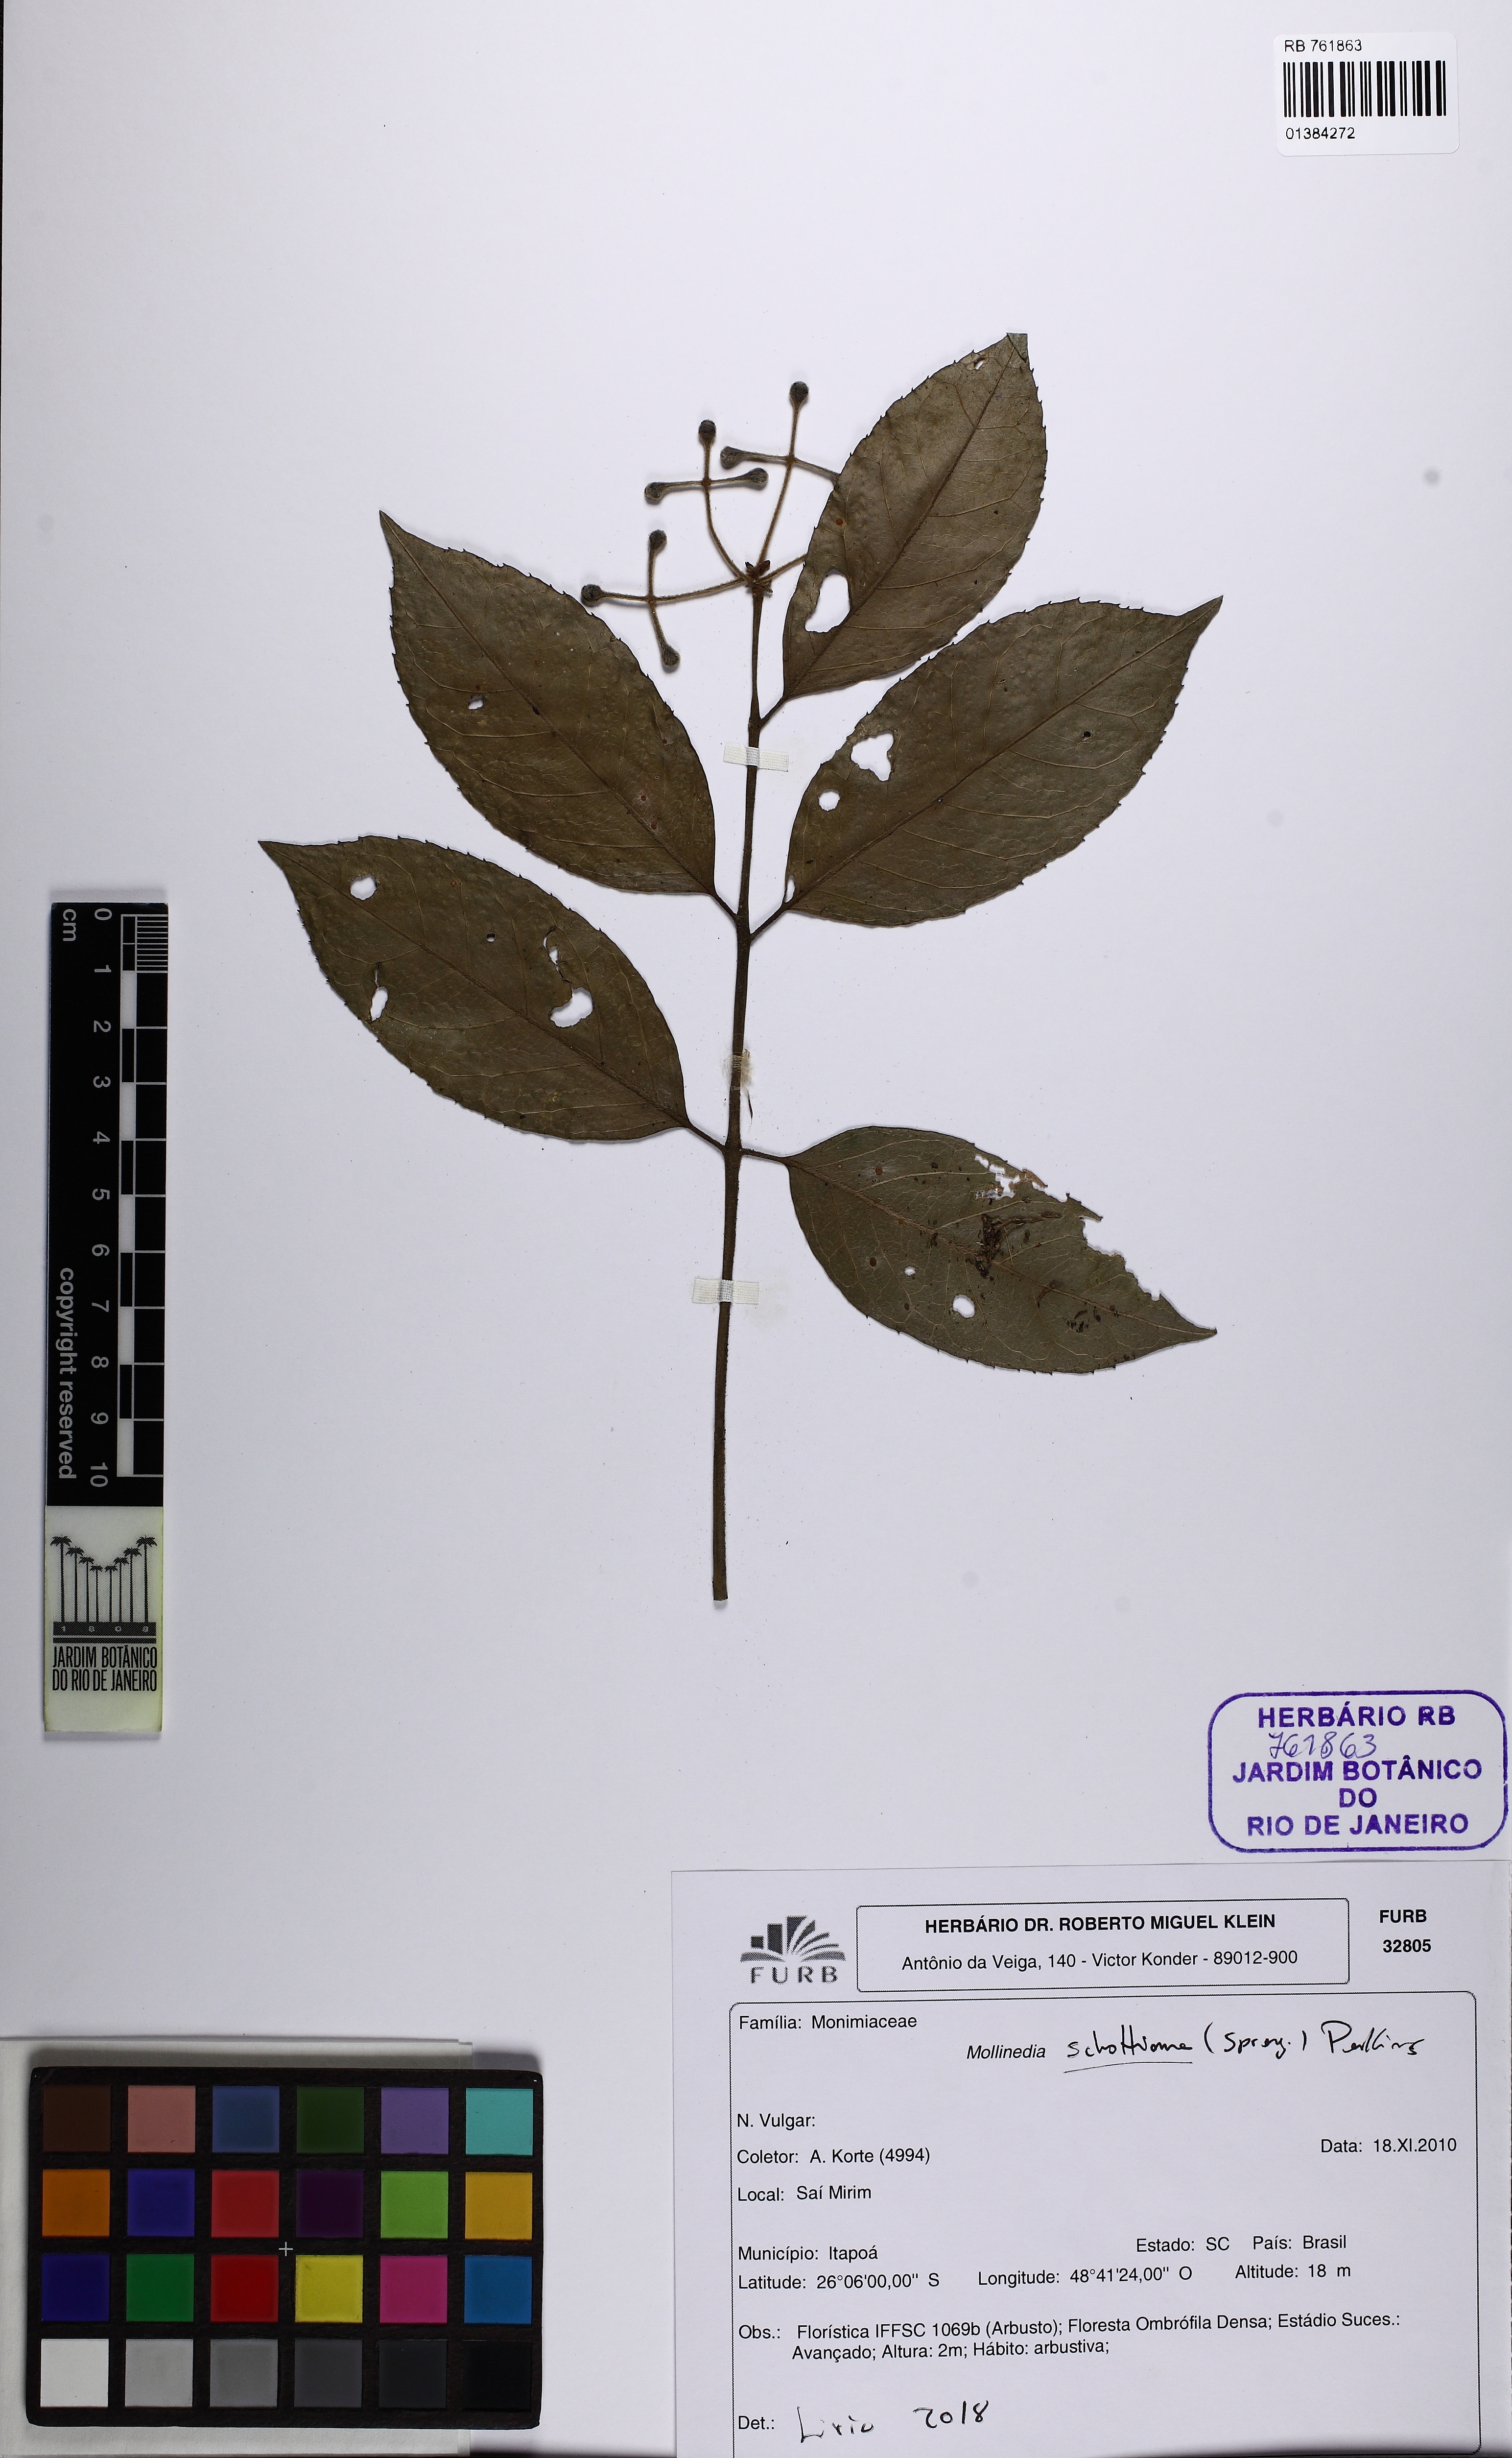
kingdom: Plantae
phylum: Tracheophyta
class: Magnoliopsida
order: Laurales
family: Monimiaceae
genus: Mollinedia
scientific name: Mollinedia umbellata
